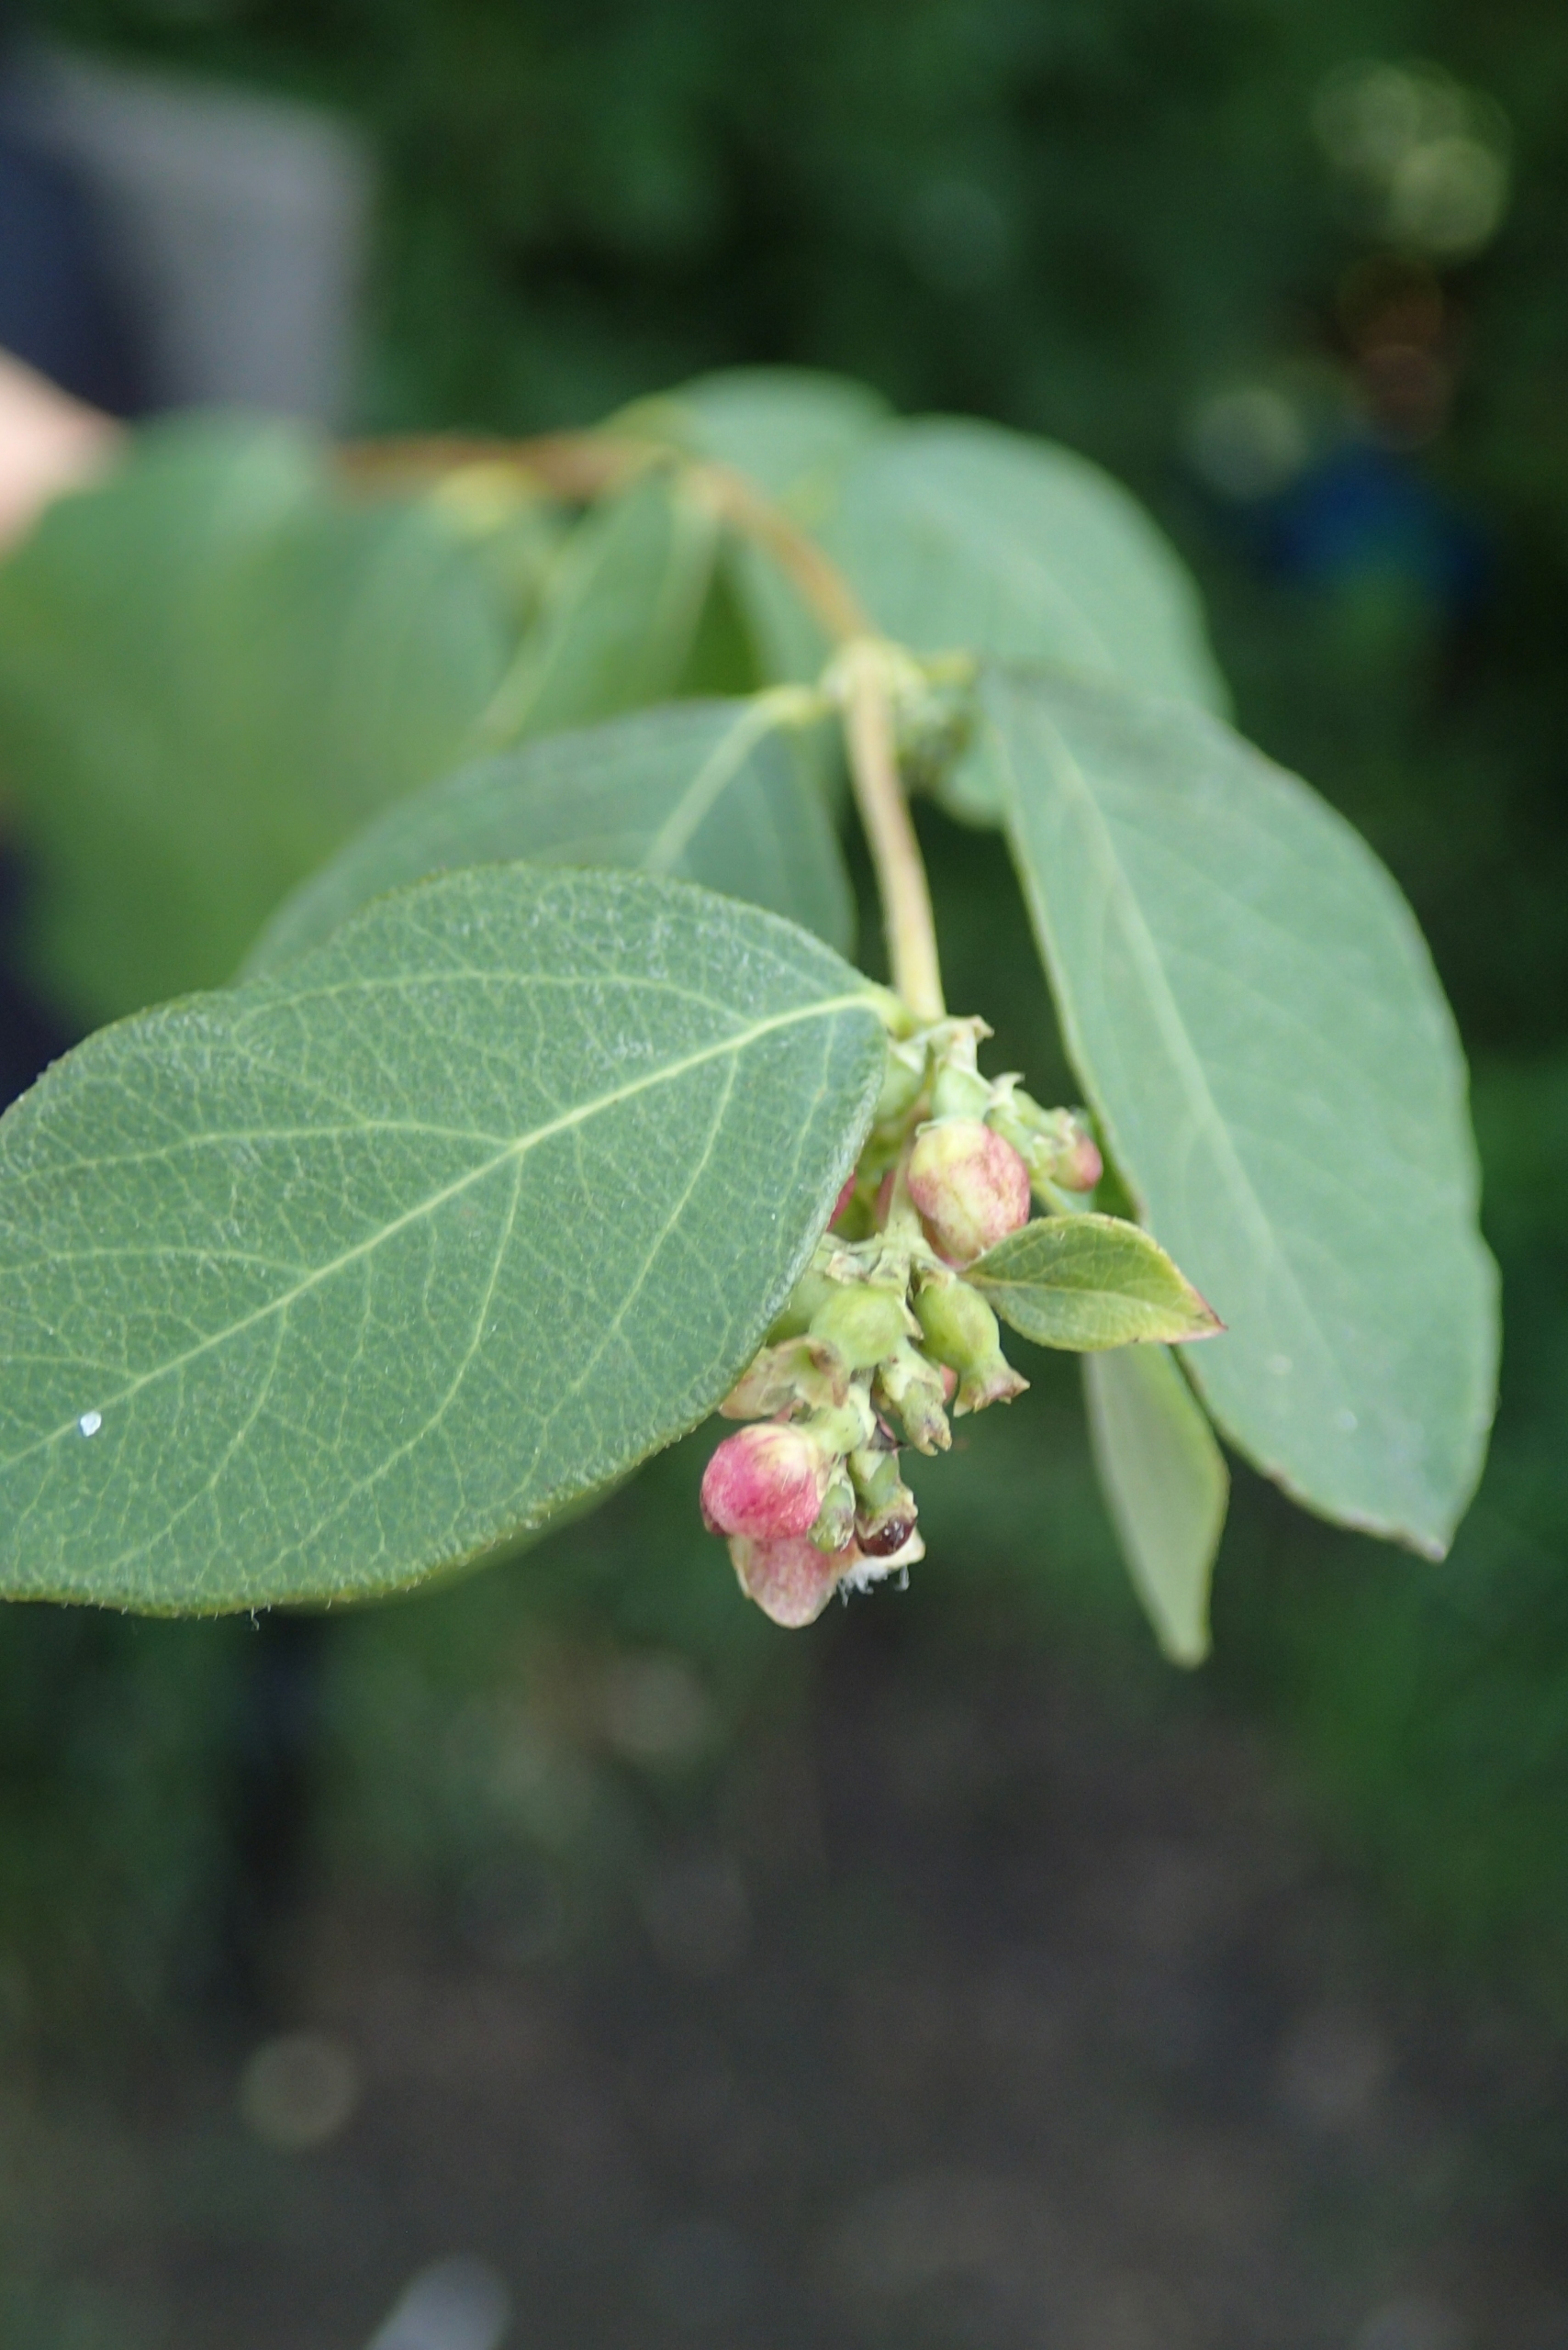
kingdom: Plantae
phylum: Tracheophyta
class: Magnoliopsida
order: Dipsacales
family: Caprifoliaceae
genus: Symphoricarpos
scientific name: Symphoricarpos albus
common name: Almindelig snebær
